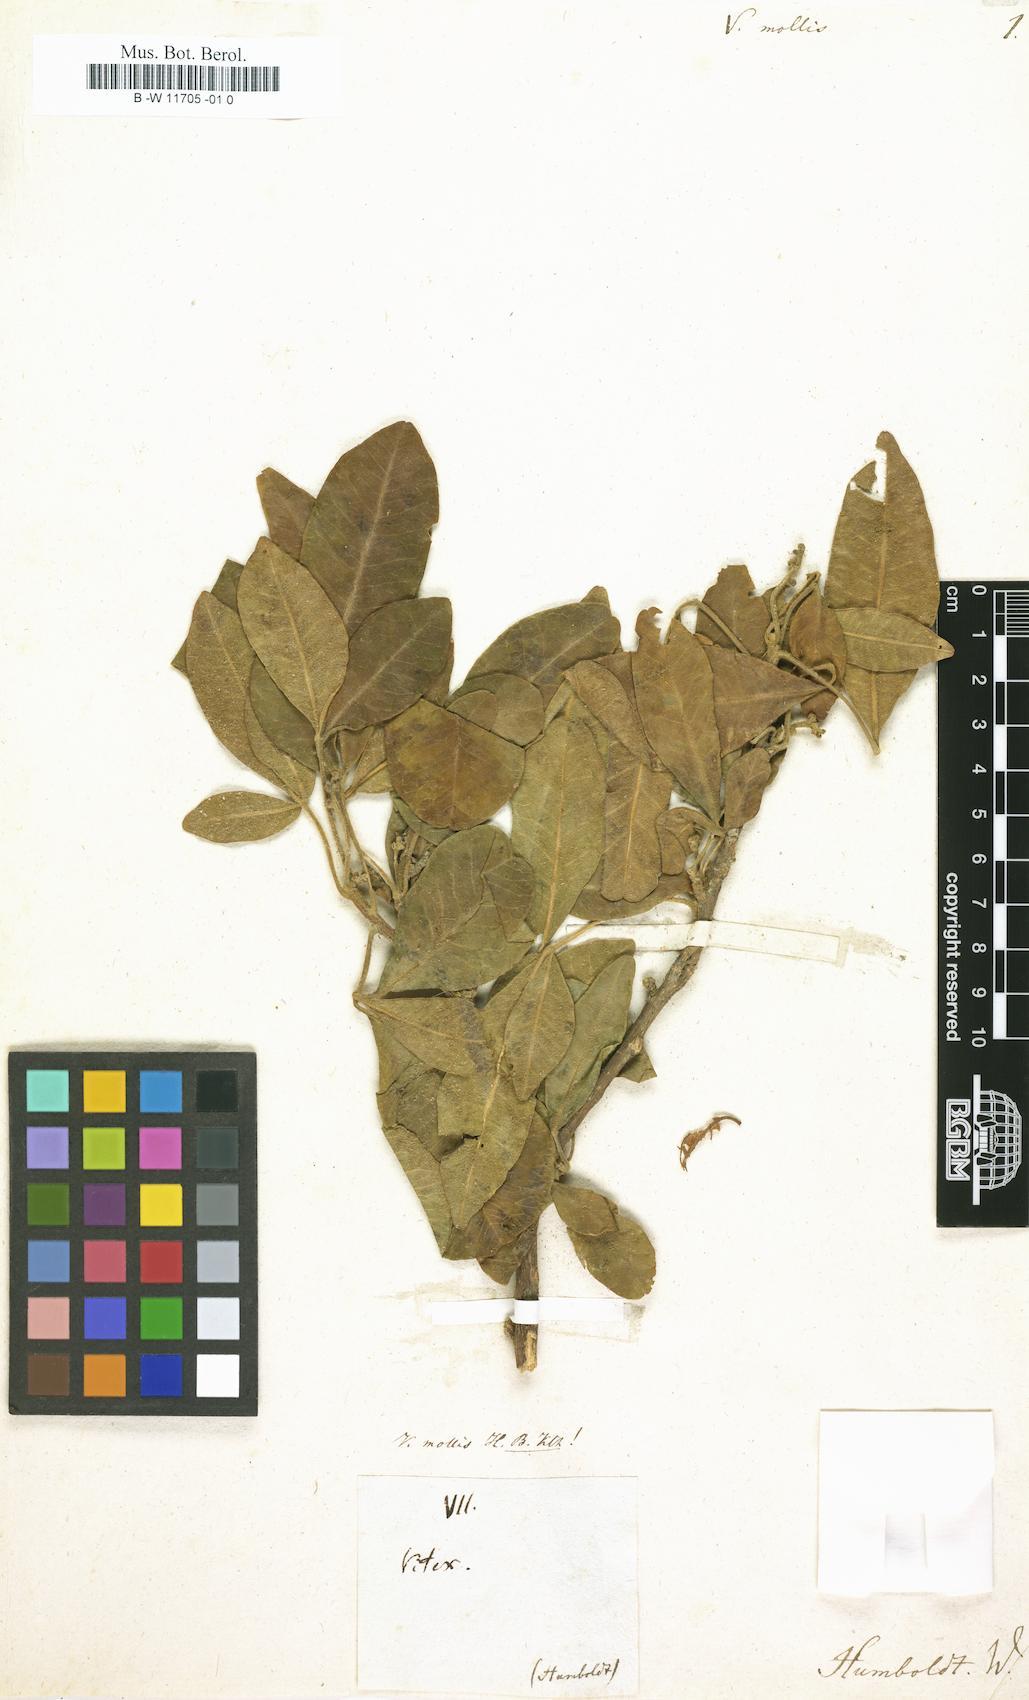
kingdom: Plantae
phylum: Tracheophyta
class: Magnoliopsida
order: Lamiales
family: Lamiaceae
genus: Vitex
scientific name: Vitex mollis
